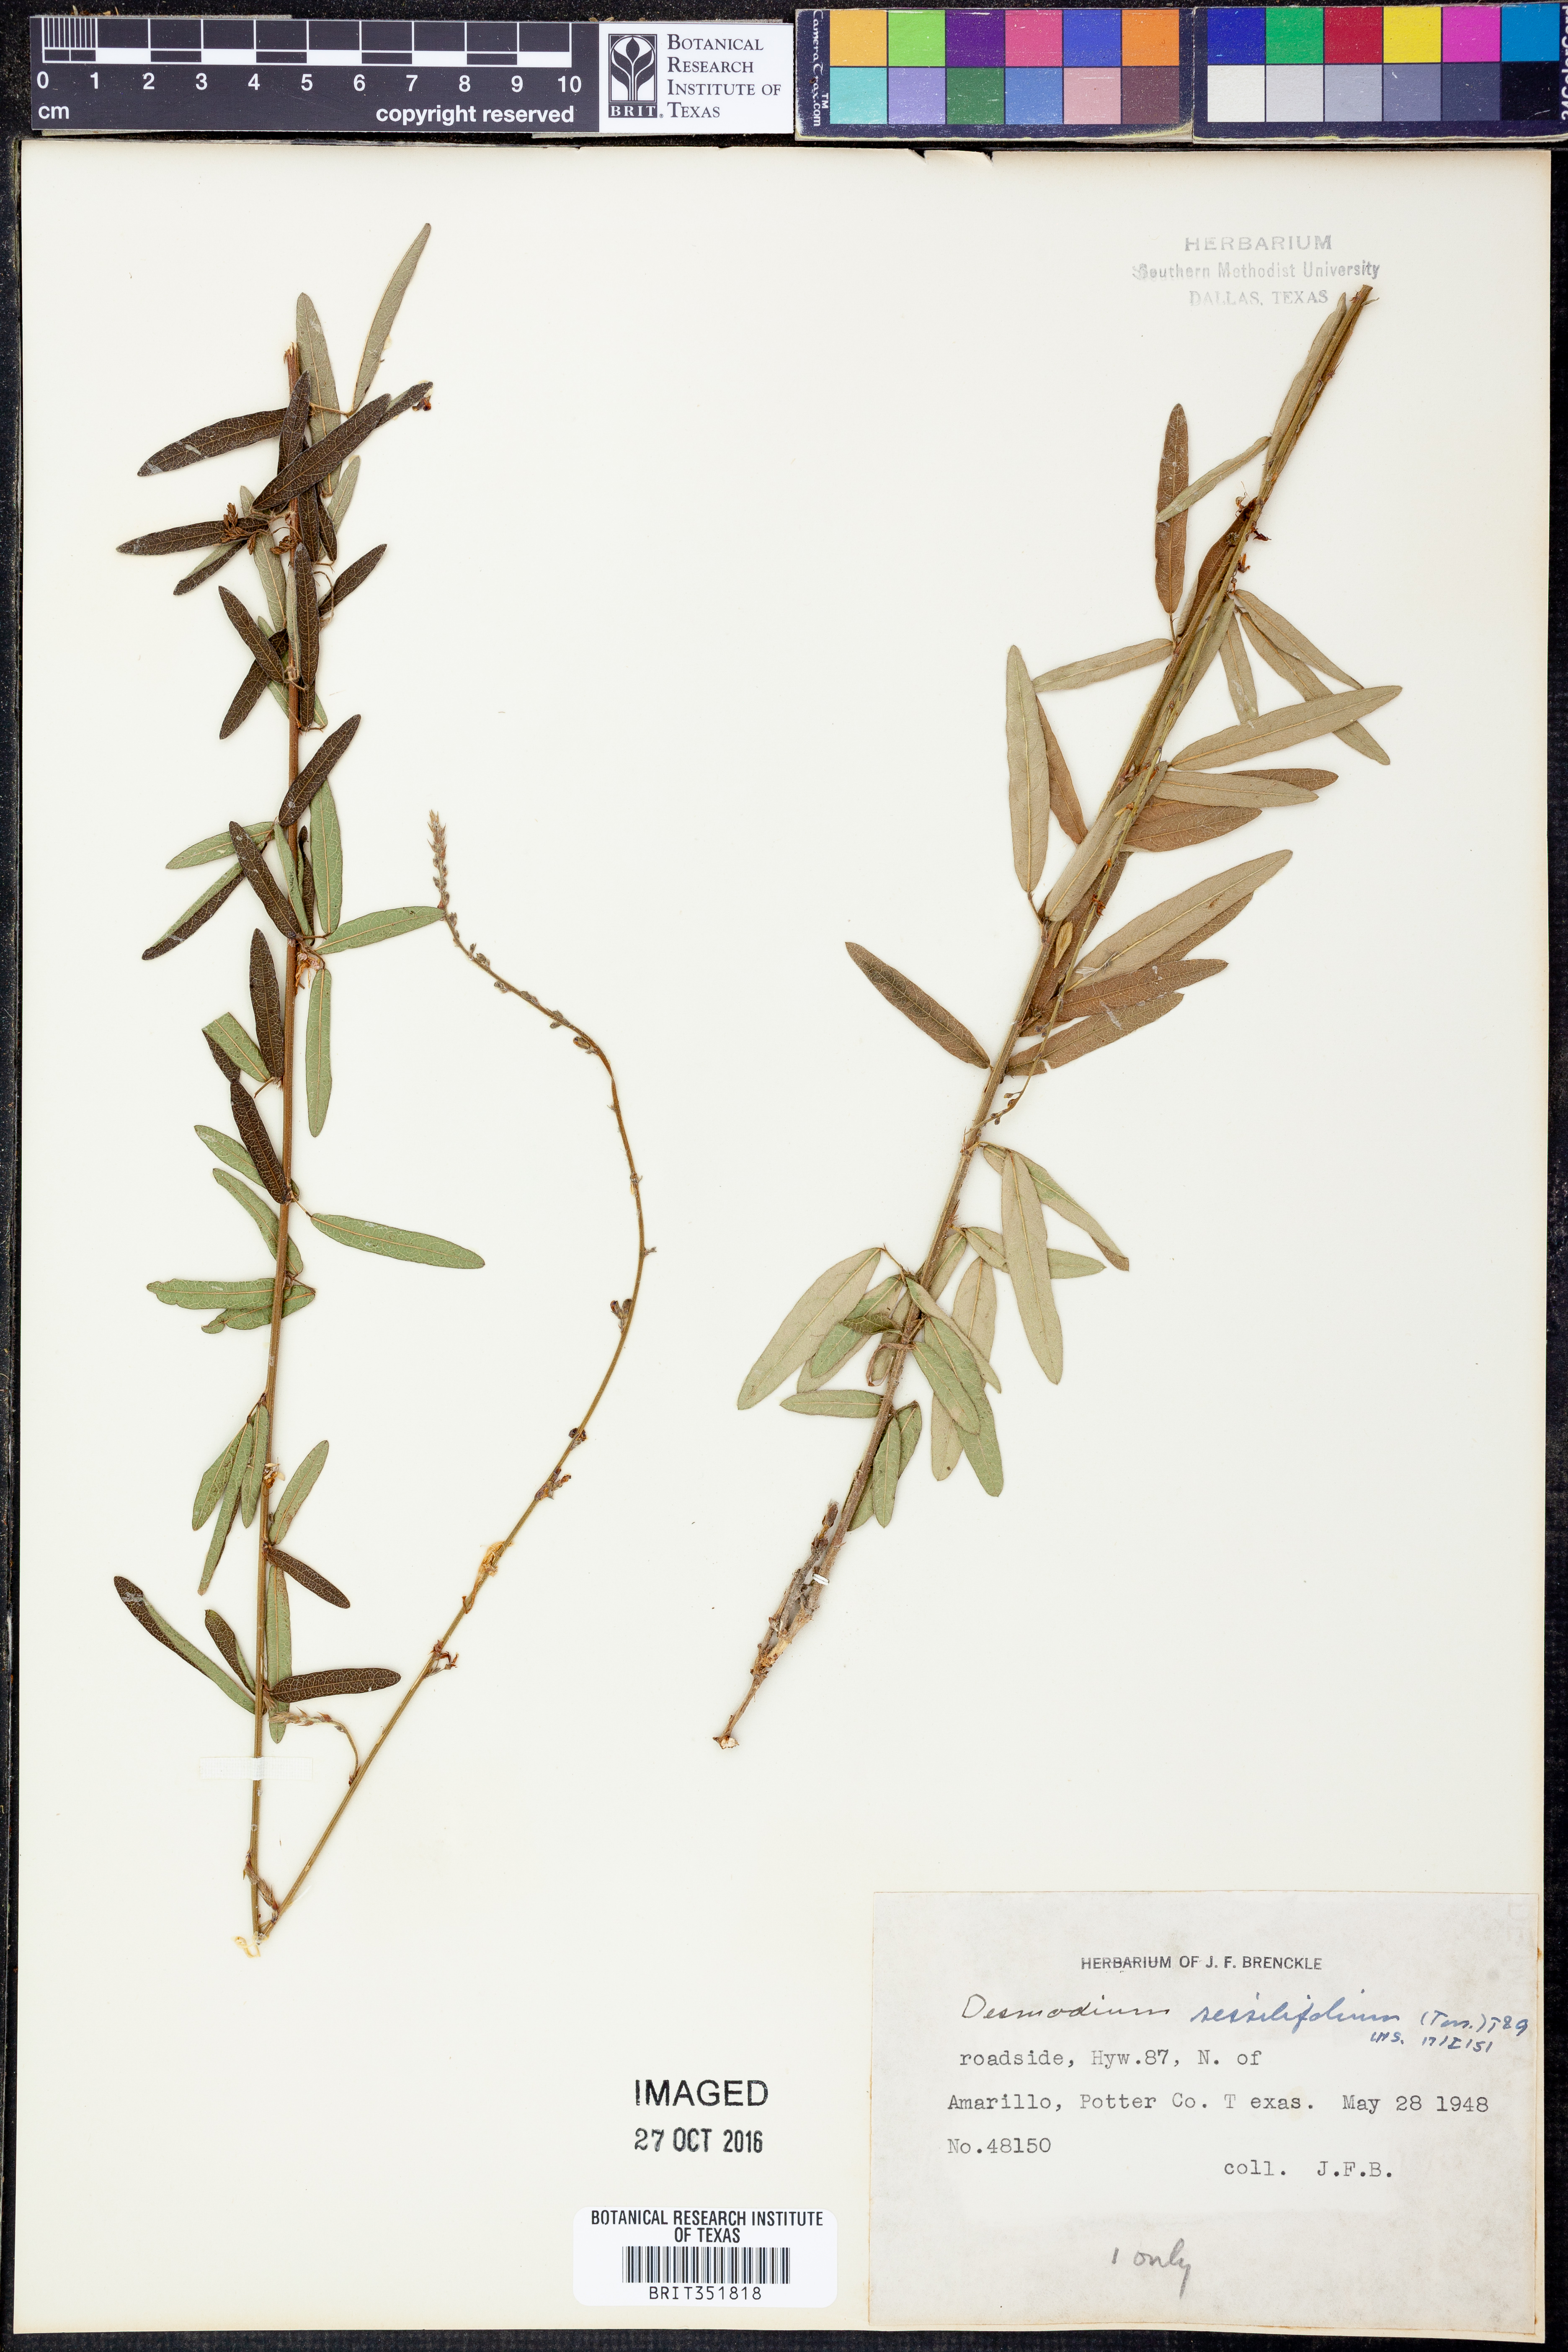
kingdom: Plantae
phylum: Tracheophyta
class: Magnoliopsida
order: Fabales
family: Fabaceae
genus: Desmodium
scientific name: Desmodium sessilifolium
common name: Sessile tick-clover
